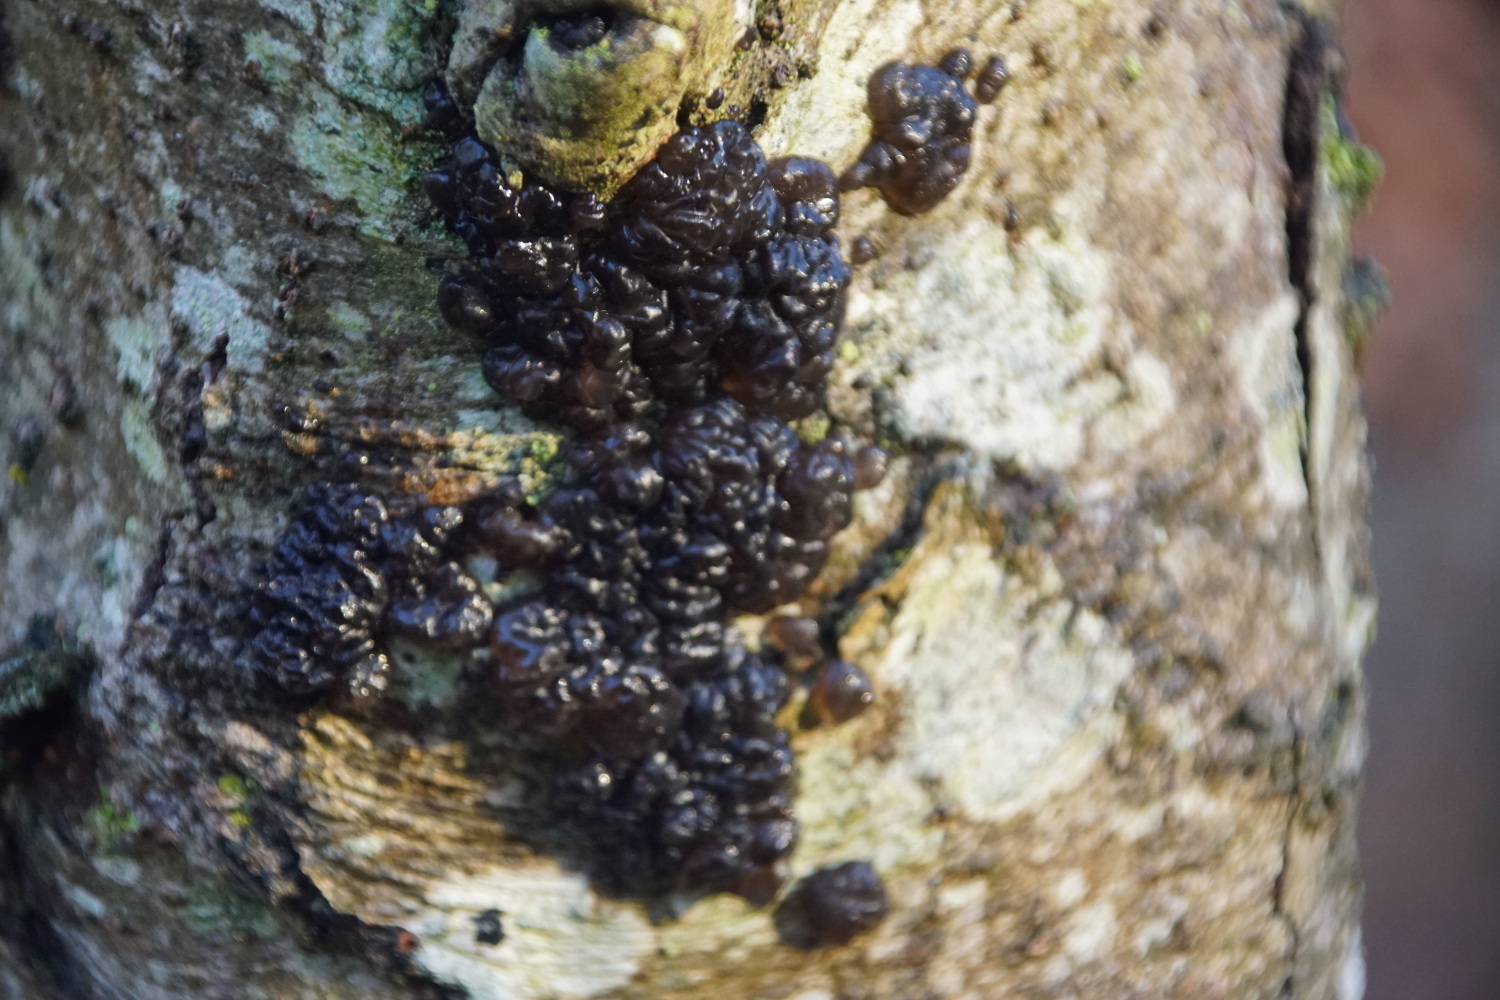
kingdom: Fungi
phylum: Basidiomycota
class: Agaricomycetes
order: Auriculariales
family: Auriculariaceae
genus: Exidia
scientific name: Exidia nigricans
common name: almindelig bævretop
